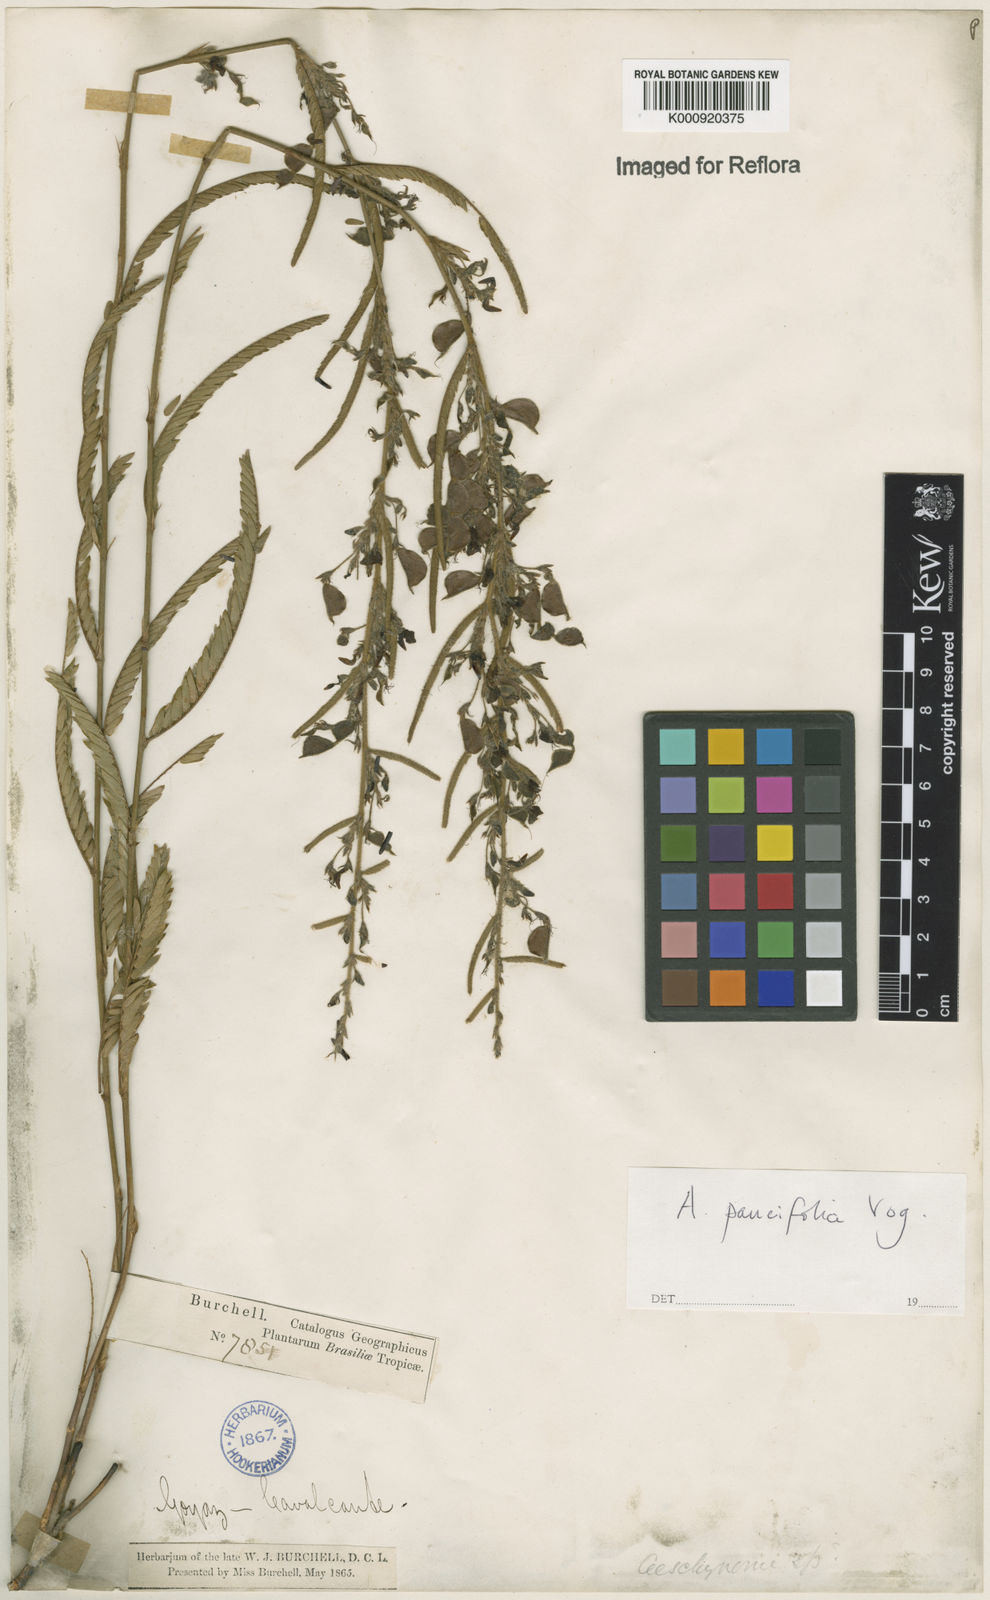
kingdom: Plantae
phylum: Tracheophyta
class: Magnoliopsida
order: Fabales
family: Fabaceae
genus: Ctenodon
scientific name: Ctenodon paucifolius
